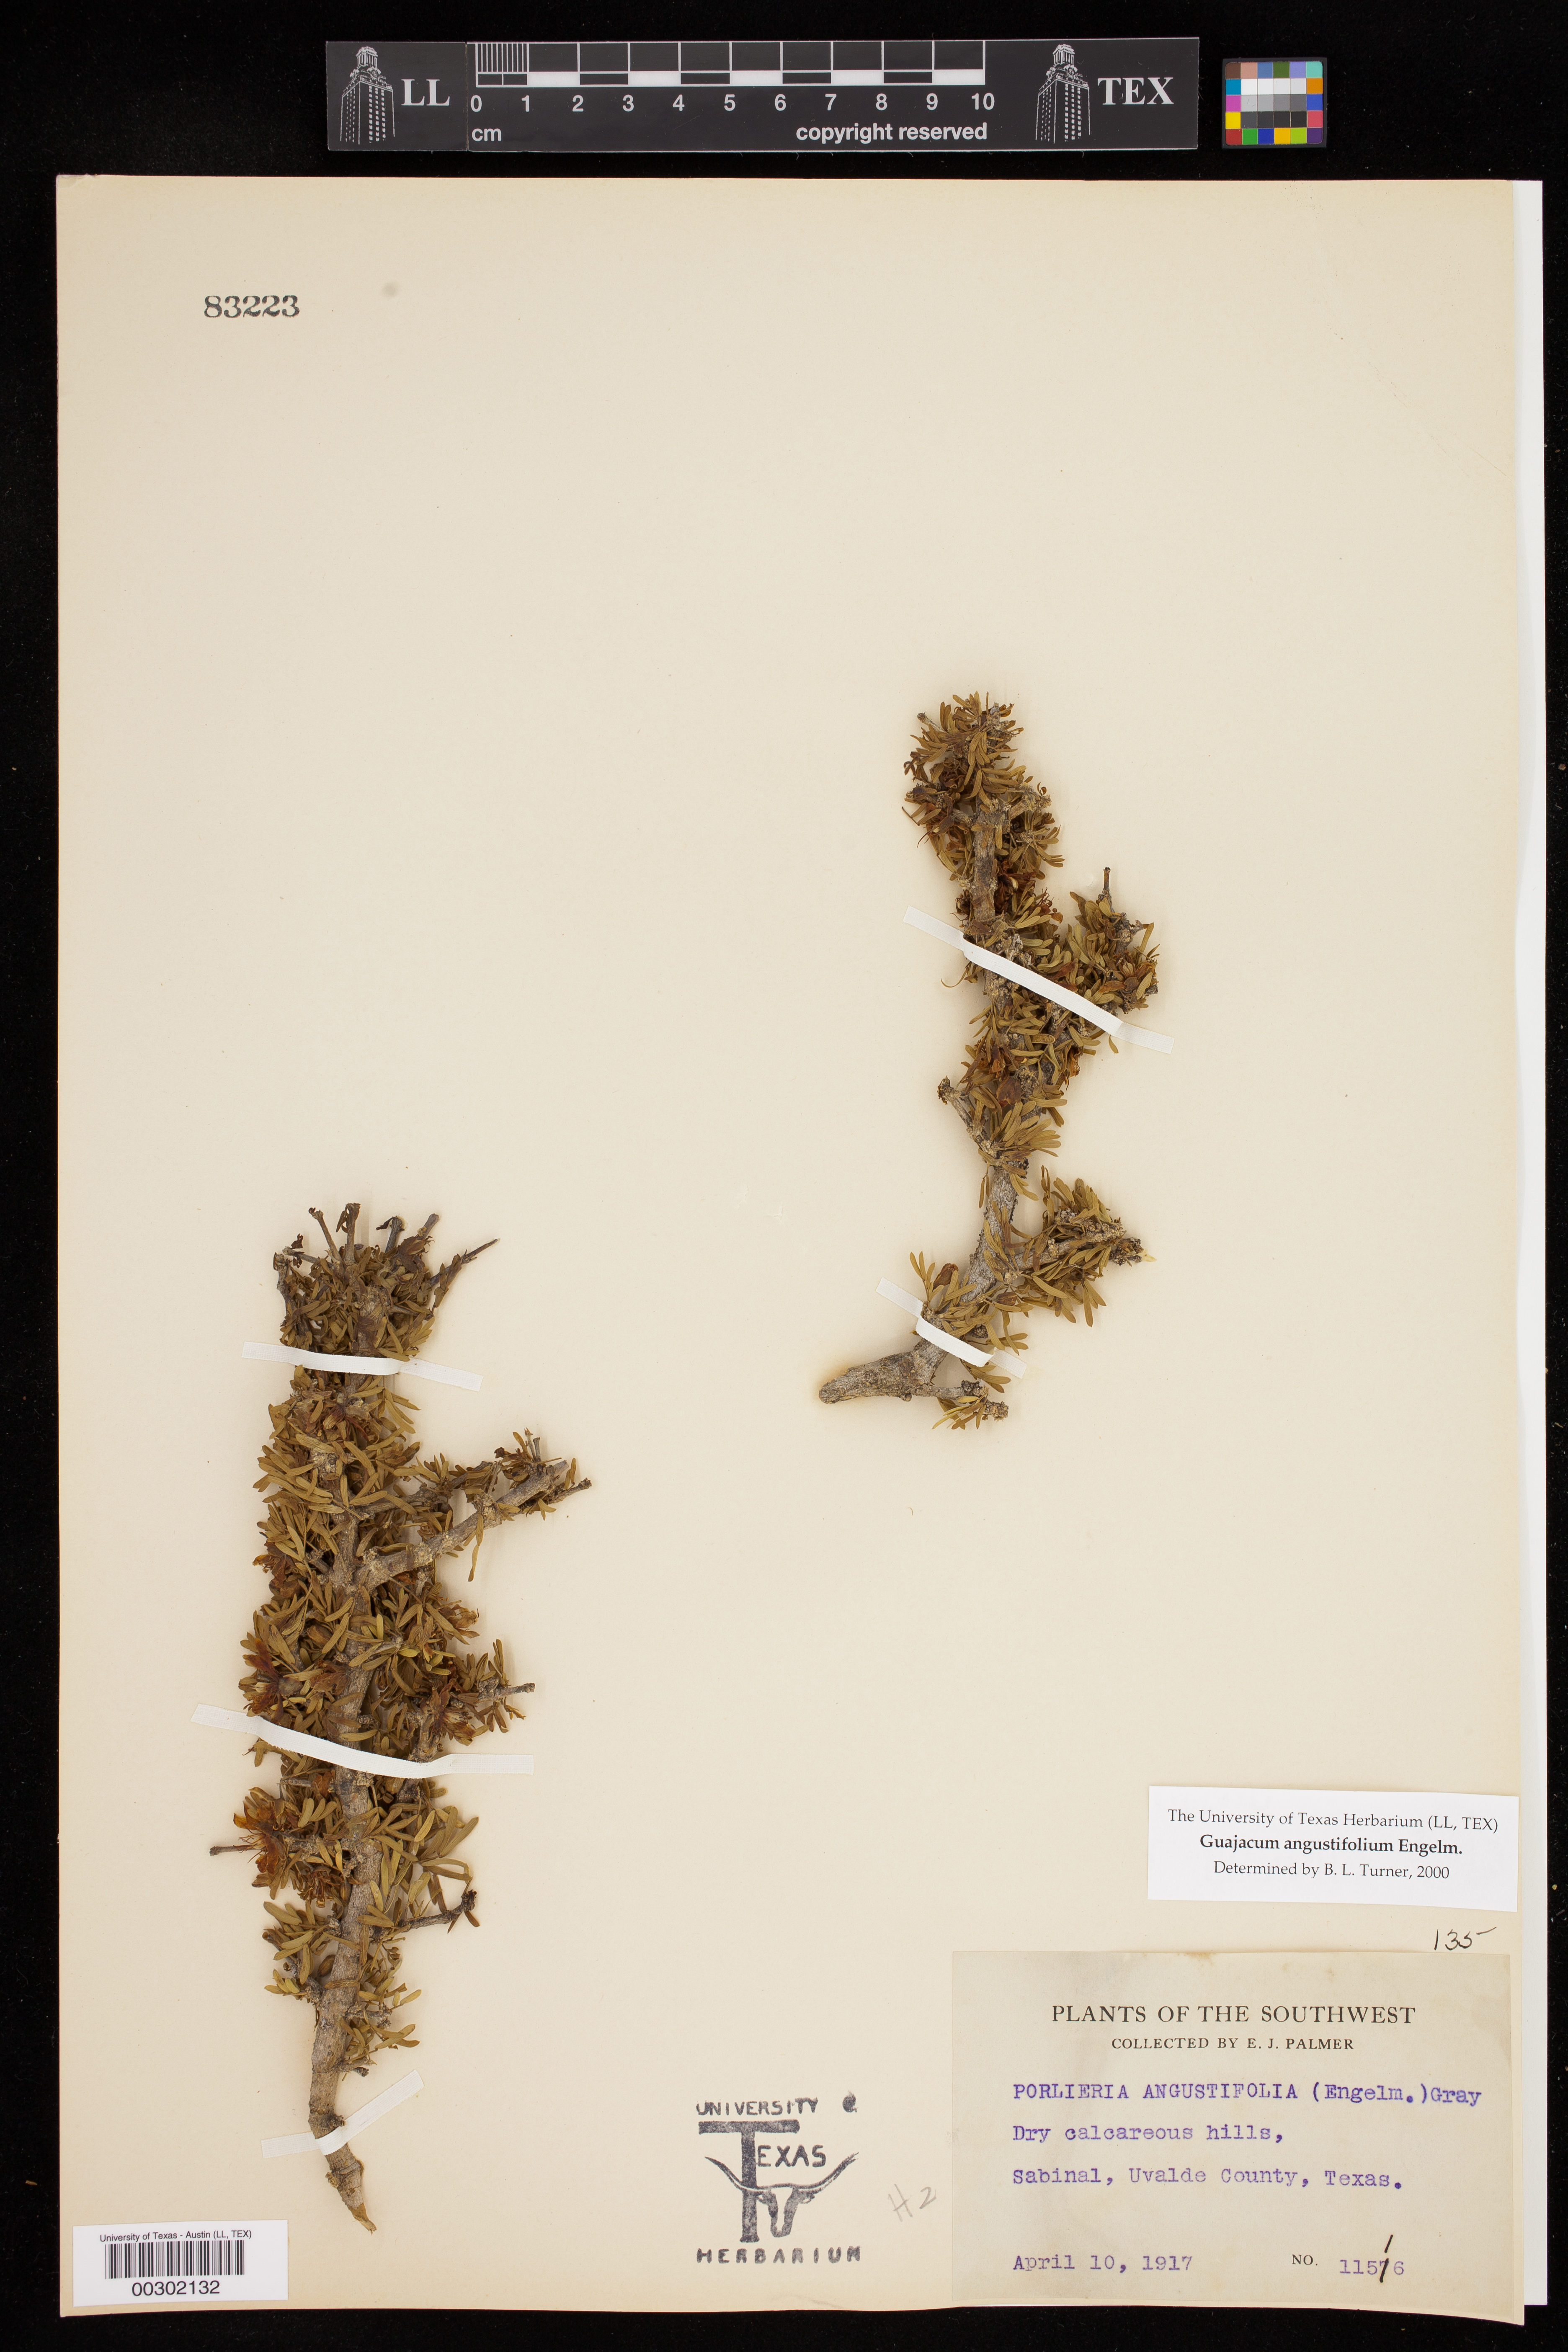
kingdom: Plantae
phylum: Tracheophyta
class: Magnoliopsida
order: Zygophyllales
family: Zygophyllaceae
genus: Porlieria
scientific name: Porlieria angustifolia
